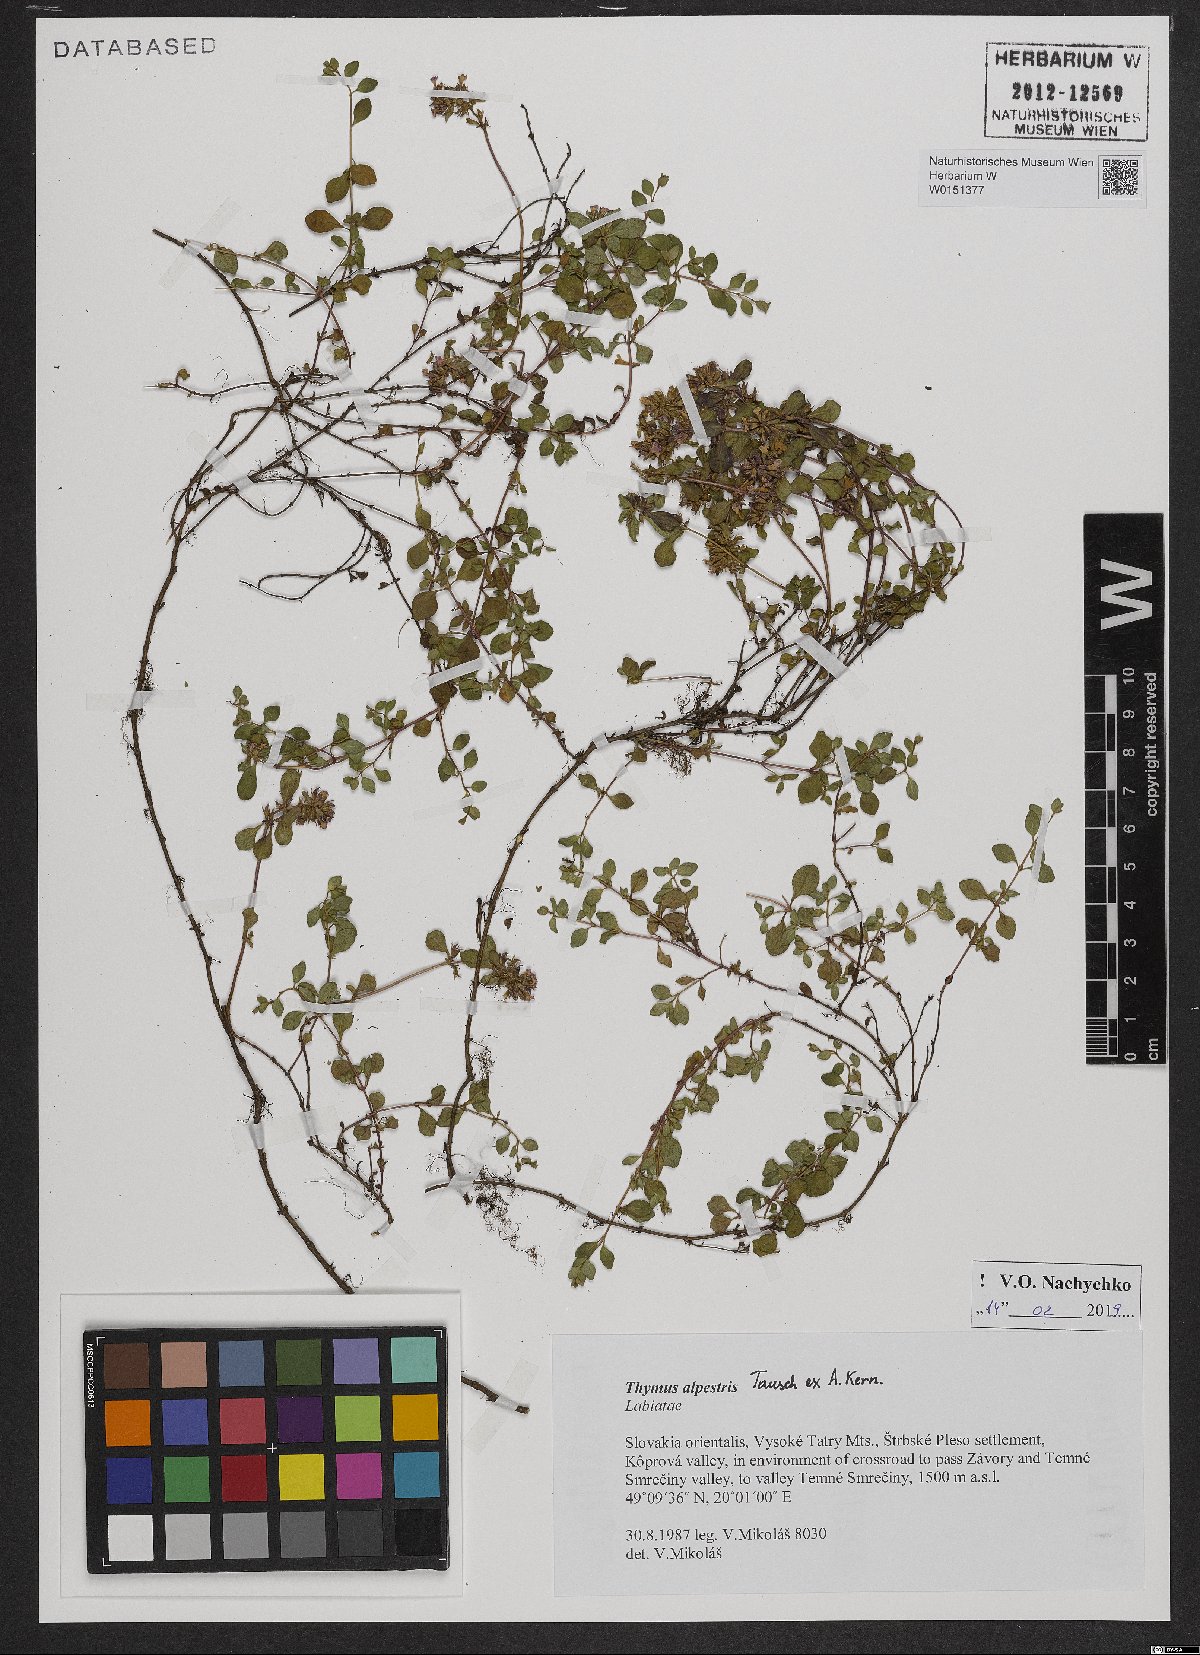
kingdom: Plantae
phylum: Tracheophyta
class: Magnoliopsida
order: Lamiales
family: Lamiaceae
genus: Thymus
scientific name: Thymus alpestris
